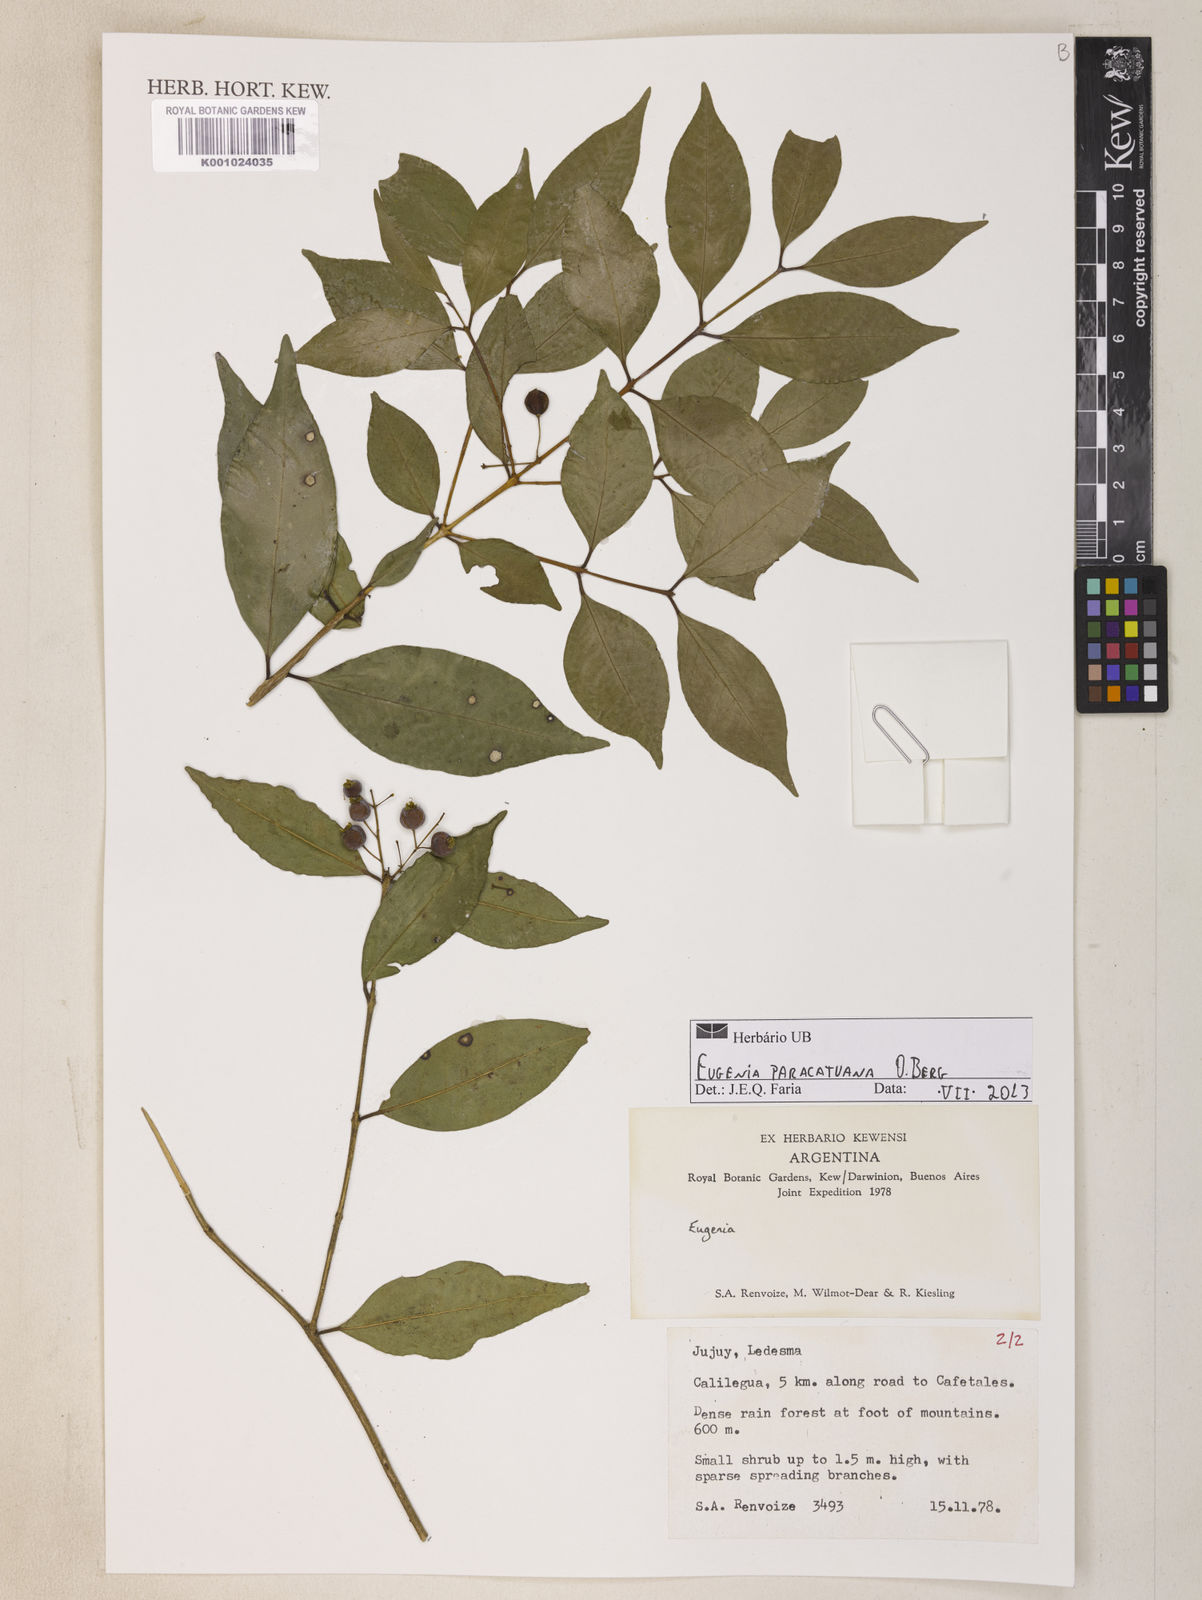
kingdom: Plantae
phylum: Tracheophyta
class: Magnoliopsida
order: Myrtales
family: Myrtaceae
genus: Eugenia
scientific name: Eugenia moraviana
